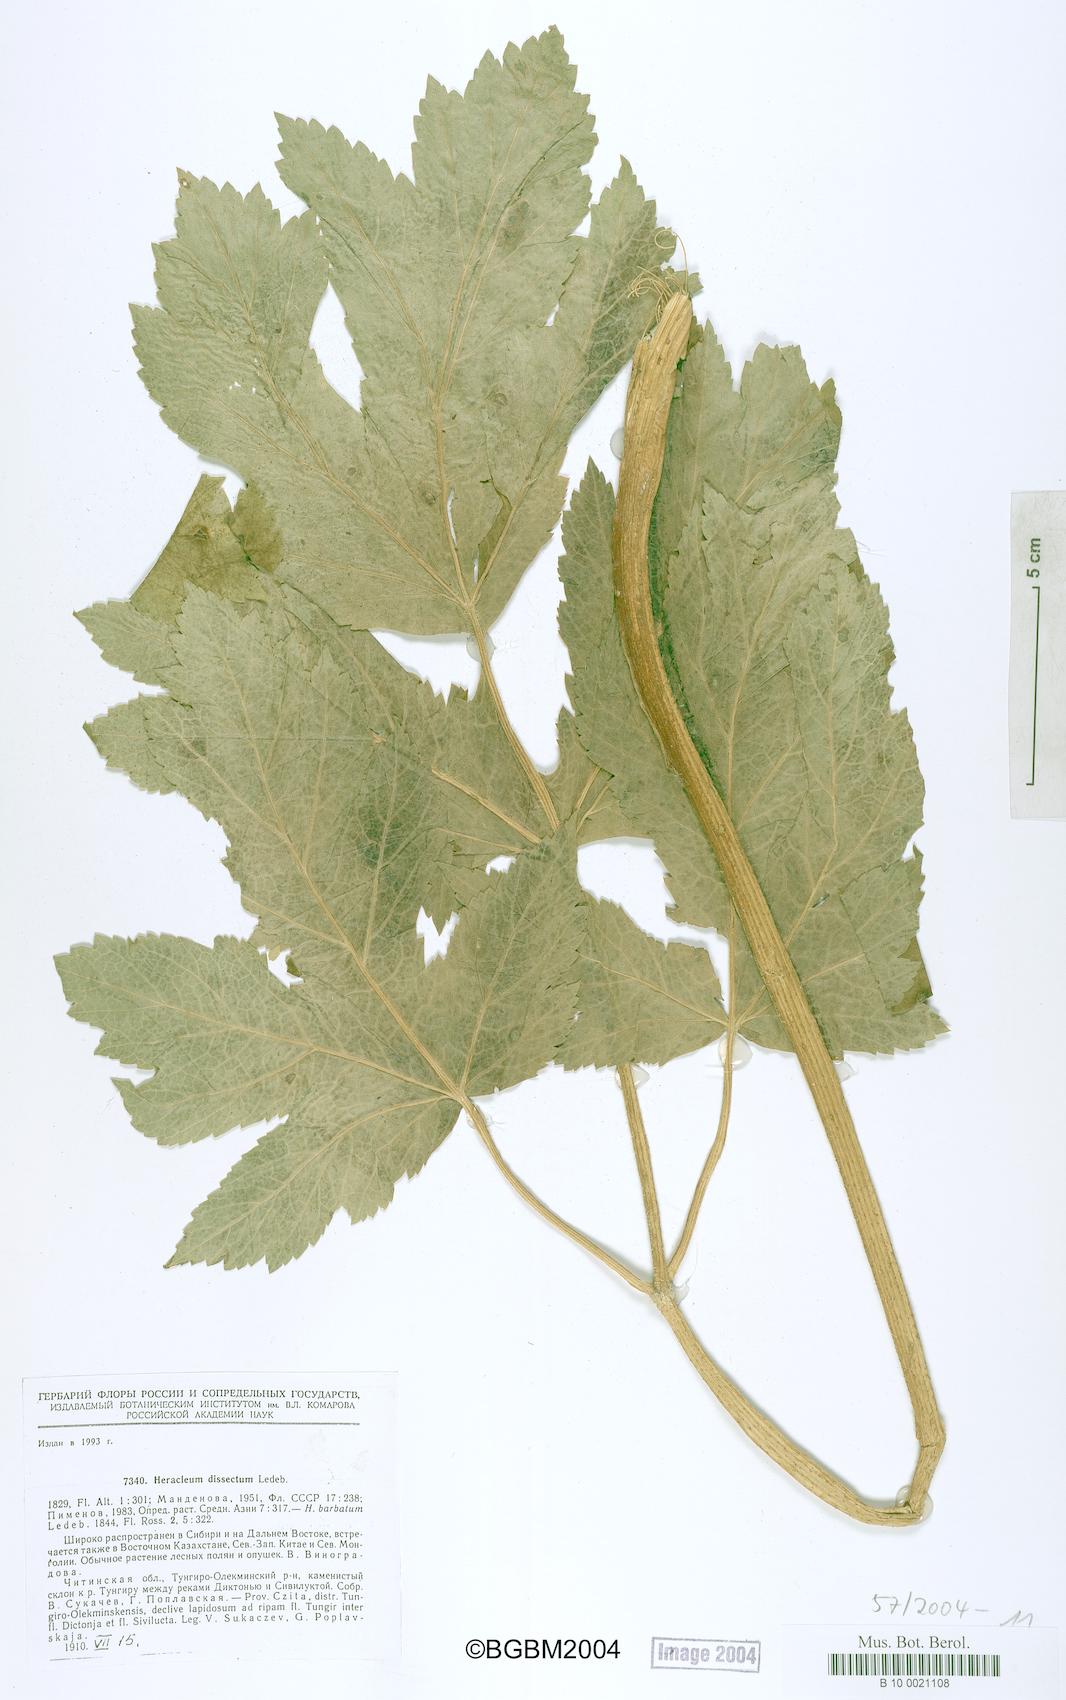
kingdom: Plantae
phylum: Tracheophyta
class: Magnoliopsida
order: Apiales
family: Apiaceae
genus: Heracleum
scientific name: Heracleum dissectum
